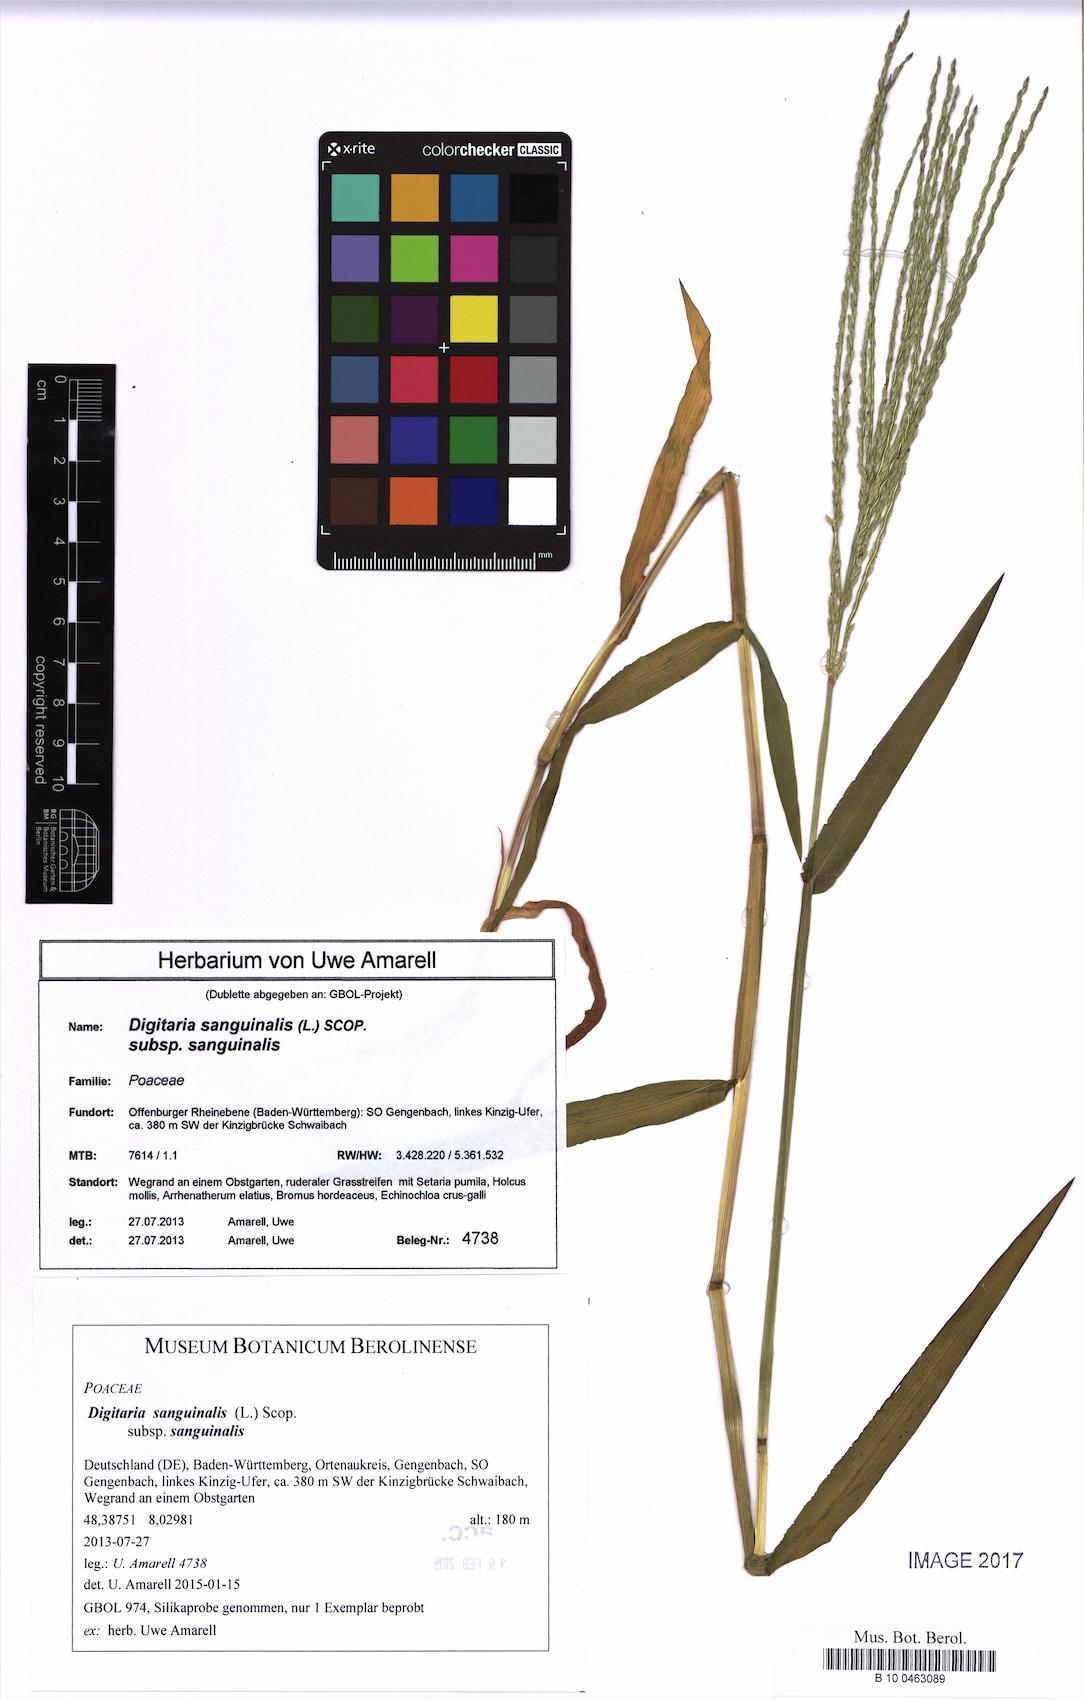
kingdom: Plantae
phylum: Tracheophyta
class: Liliopsida
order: Poales
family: Poaceae
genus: Digitaria
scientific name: Digitaria sanguinalis
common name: Hairy crabgrass
